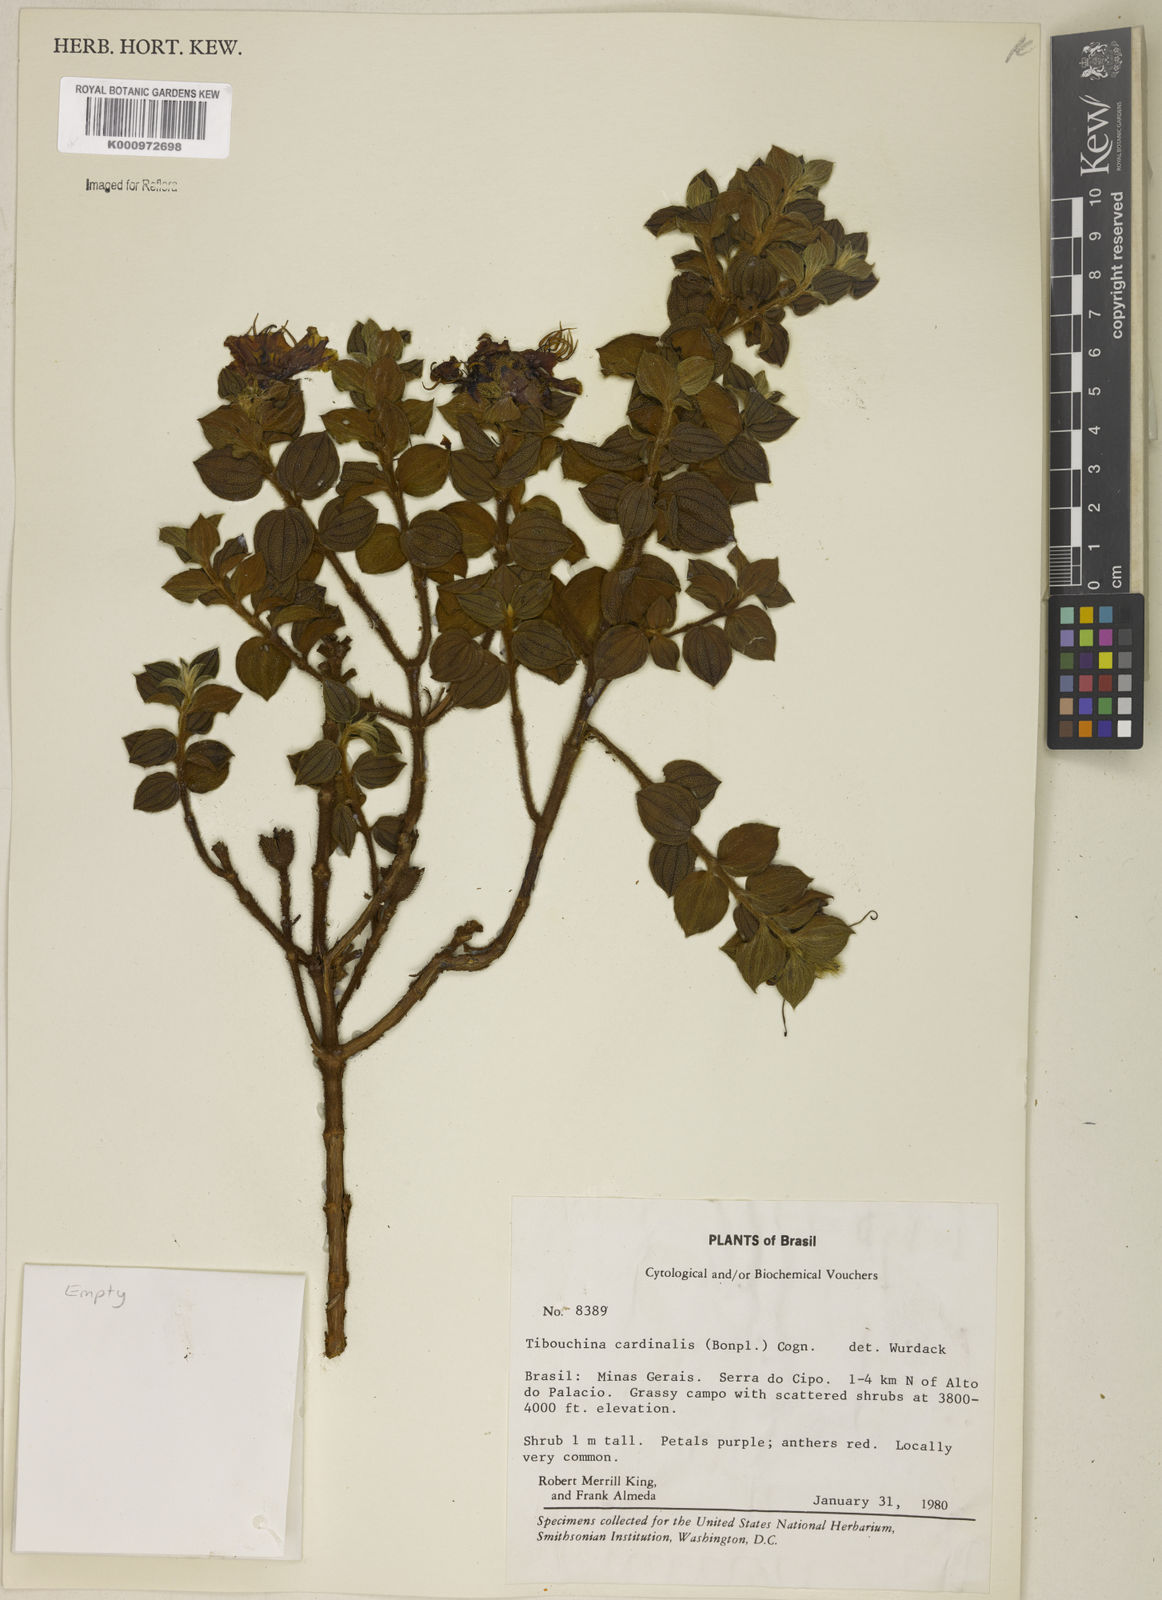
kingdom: Plantae
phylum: Tracheophyta
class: Magnoliopsida
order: Myrtales
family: Melastomataceae
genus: Chaetogastra
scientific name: Chaetogastra cardinalis
